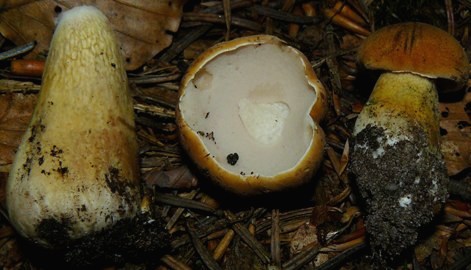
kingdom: Fungi
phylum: Basidiomycota
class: Agaricomycetes
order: Boletales
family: Boletaceae
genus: Tylopilus
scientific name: Tylopilus felleus
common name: galderørhat
